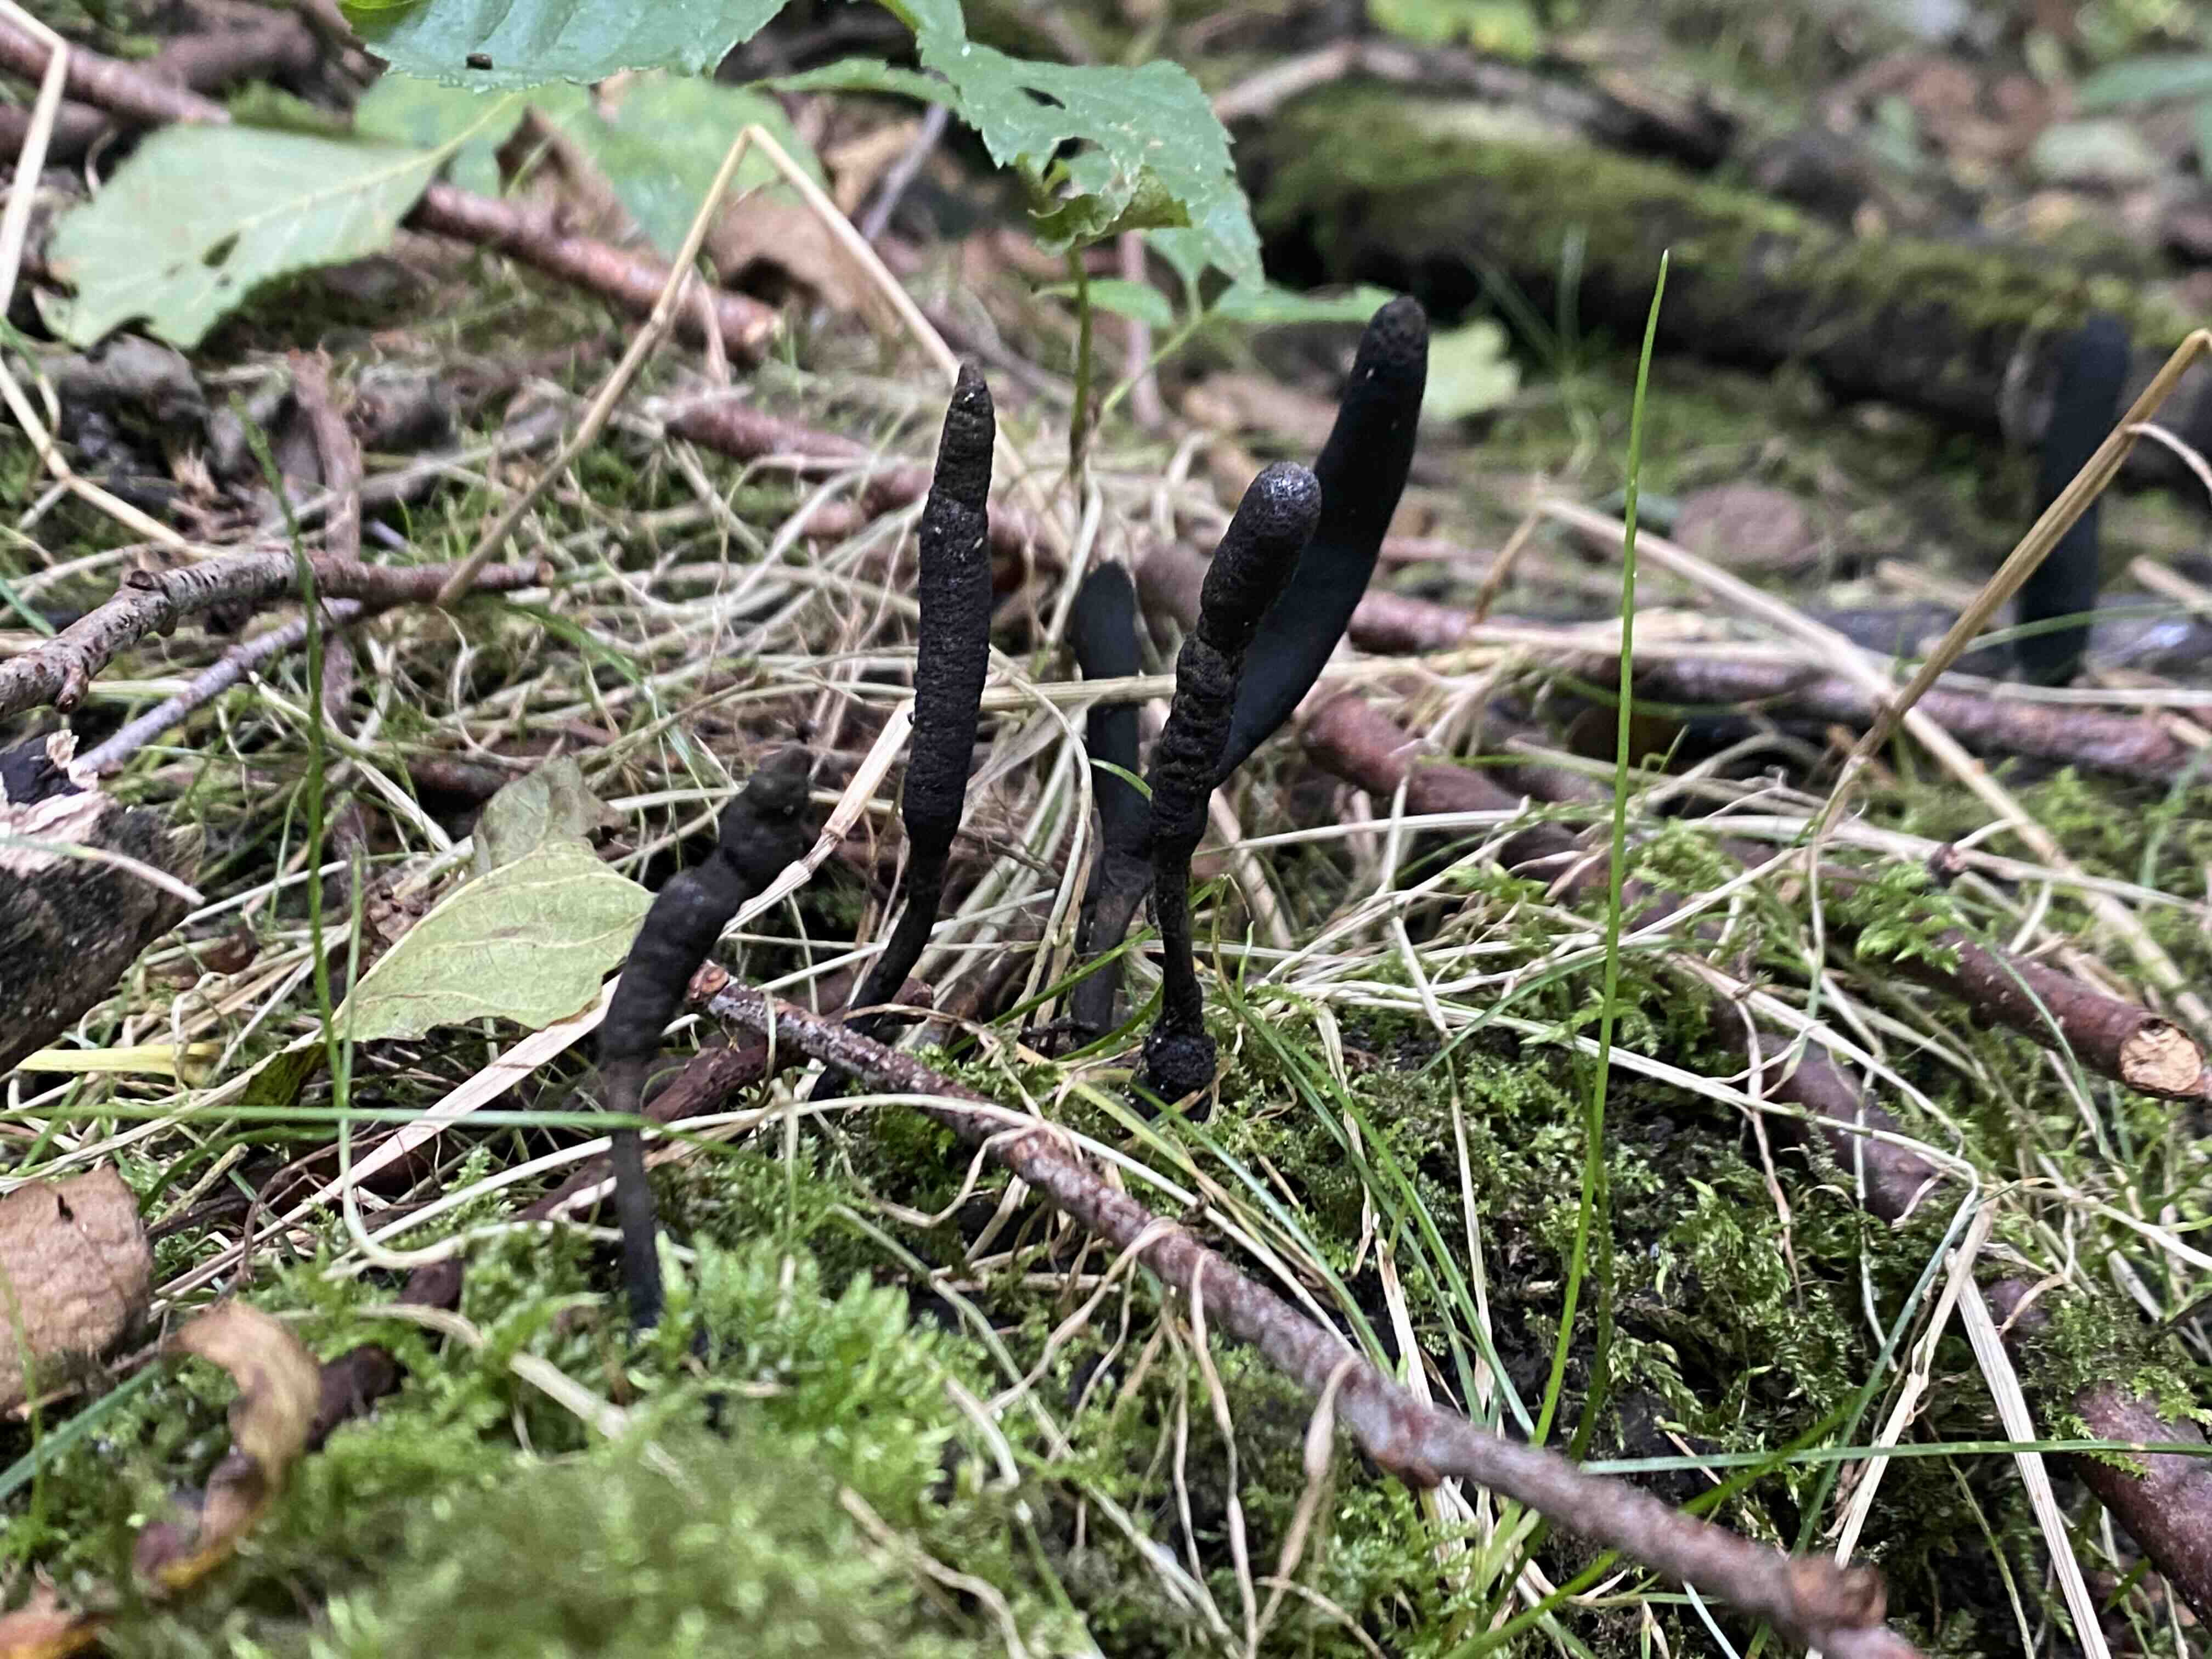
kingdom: Fungi
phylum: Ascomycota
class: Sordariomycetes
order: Xylariales
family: Xylariaceae
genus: Xylaria
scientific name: Xylaria longipes
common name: slank stødsvamp
